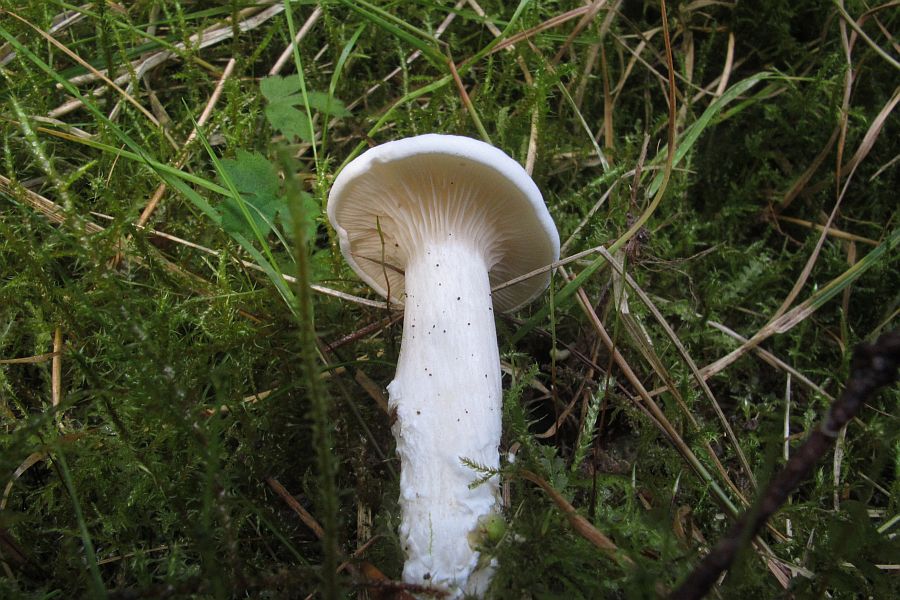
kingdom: Fungi
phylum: Basidiomycota
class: Agaricomycetes
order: Agaricales
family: Entolomataceae
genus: Clitopilus
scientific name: Clitopilus prunulus
